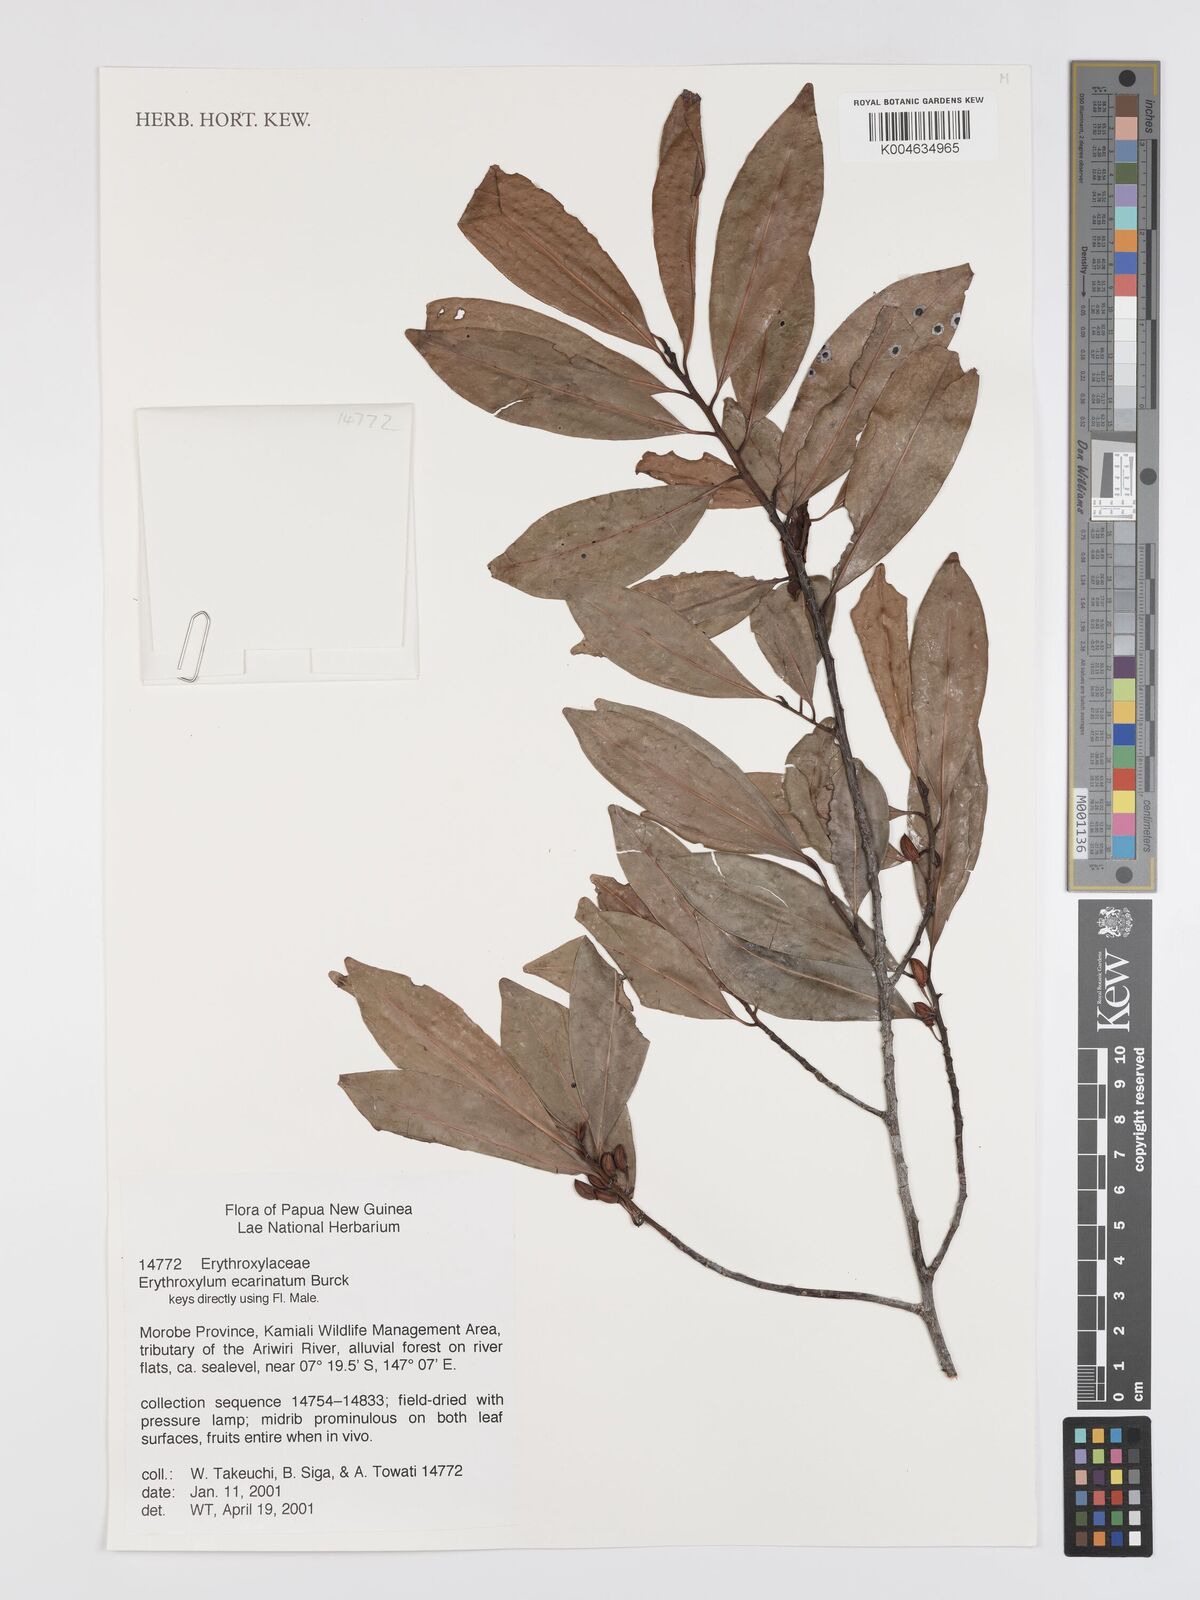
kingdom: Plantae
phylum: Tracheophyta
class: Magnoliopsida
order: Malpighiales
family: Erythroxylaceae
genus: Erythroxylum
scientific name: Erythroxylum ecarinatum
